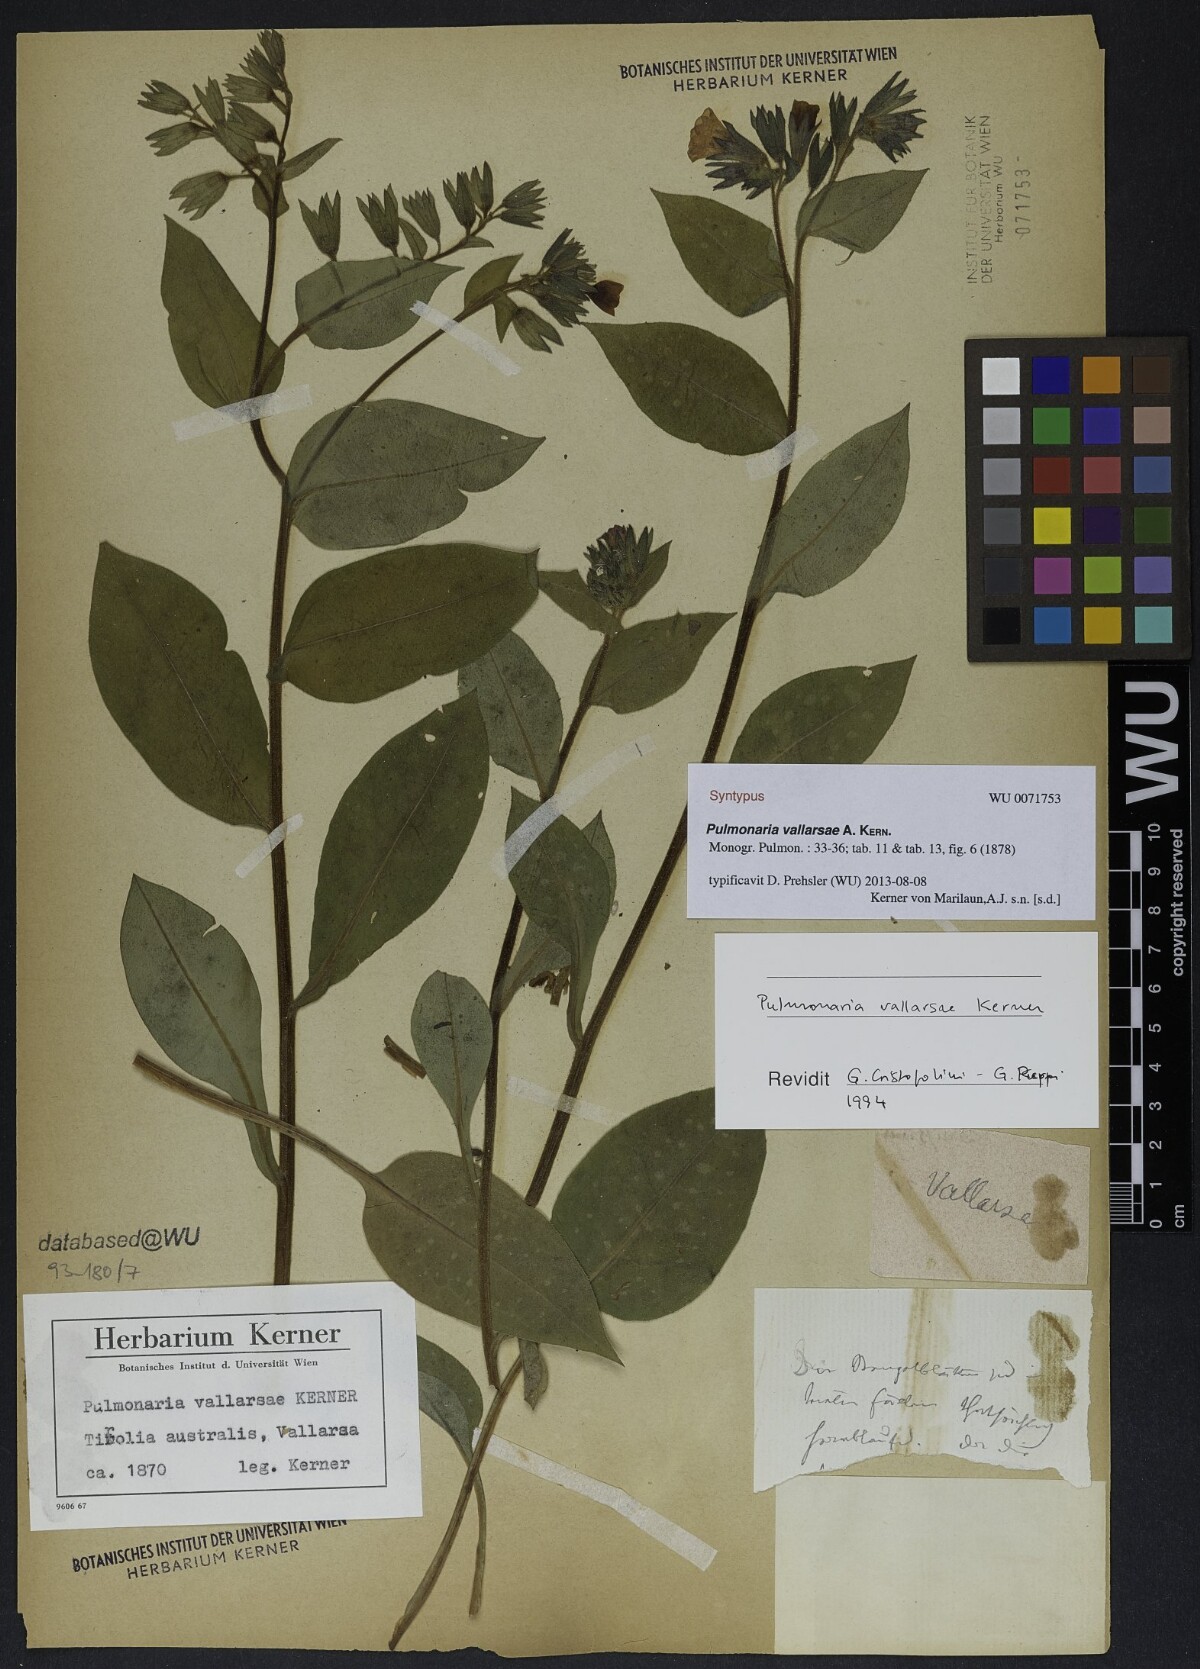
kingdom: Plantae
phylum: Tracheophyta
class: Magnoliopsida
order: Boraginales
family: Boraginaceae
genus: Pulmonaria
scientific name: Pulmonaria hirta
